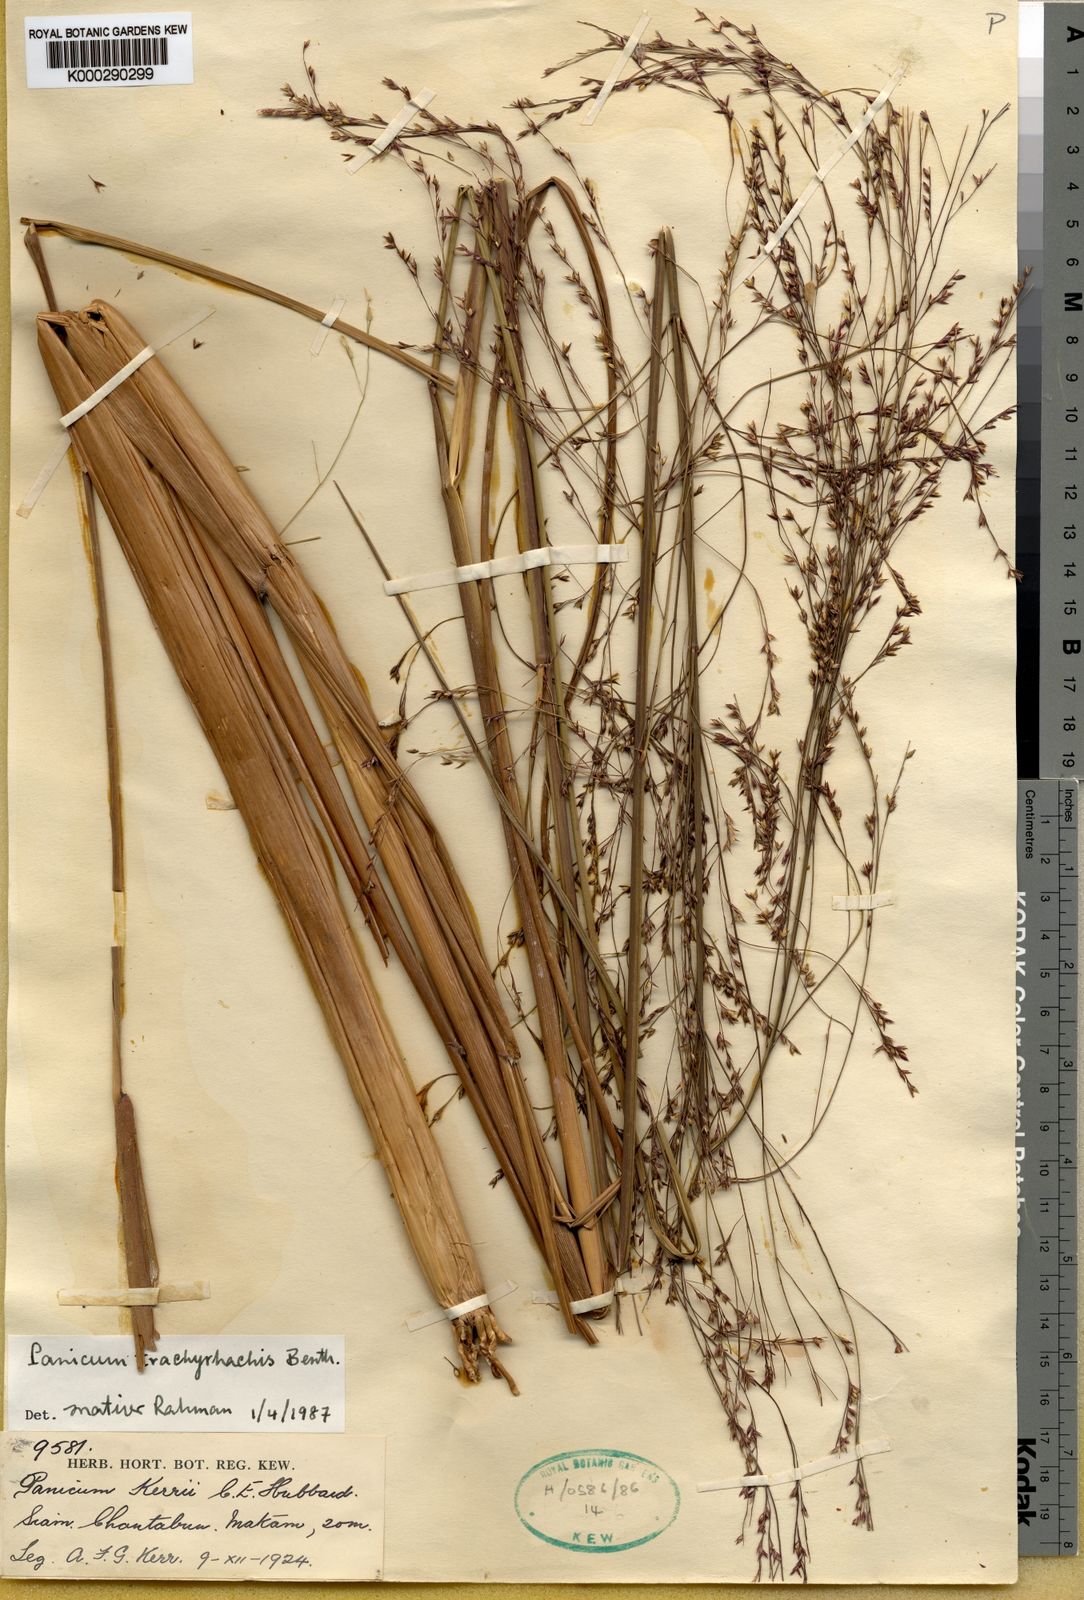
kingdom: Plantae
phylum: Tracheophyta
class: Liliopsida
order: Poales
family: Poaceae
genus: Panicum
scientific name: Panicum trachyrhachis
